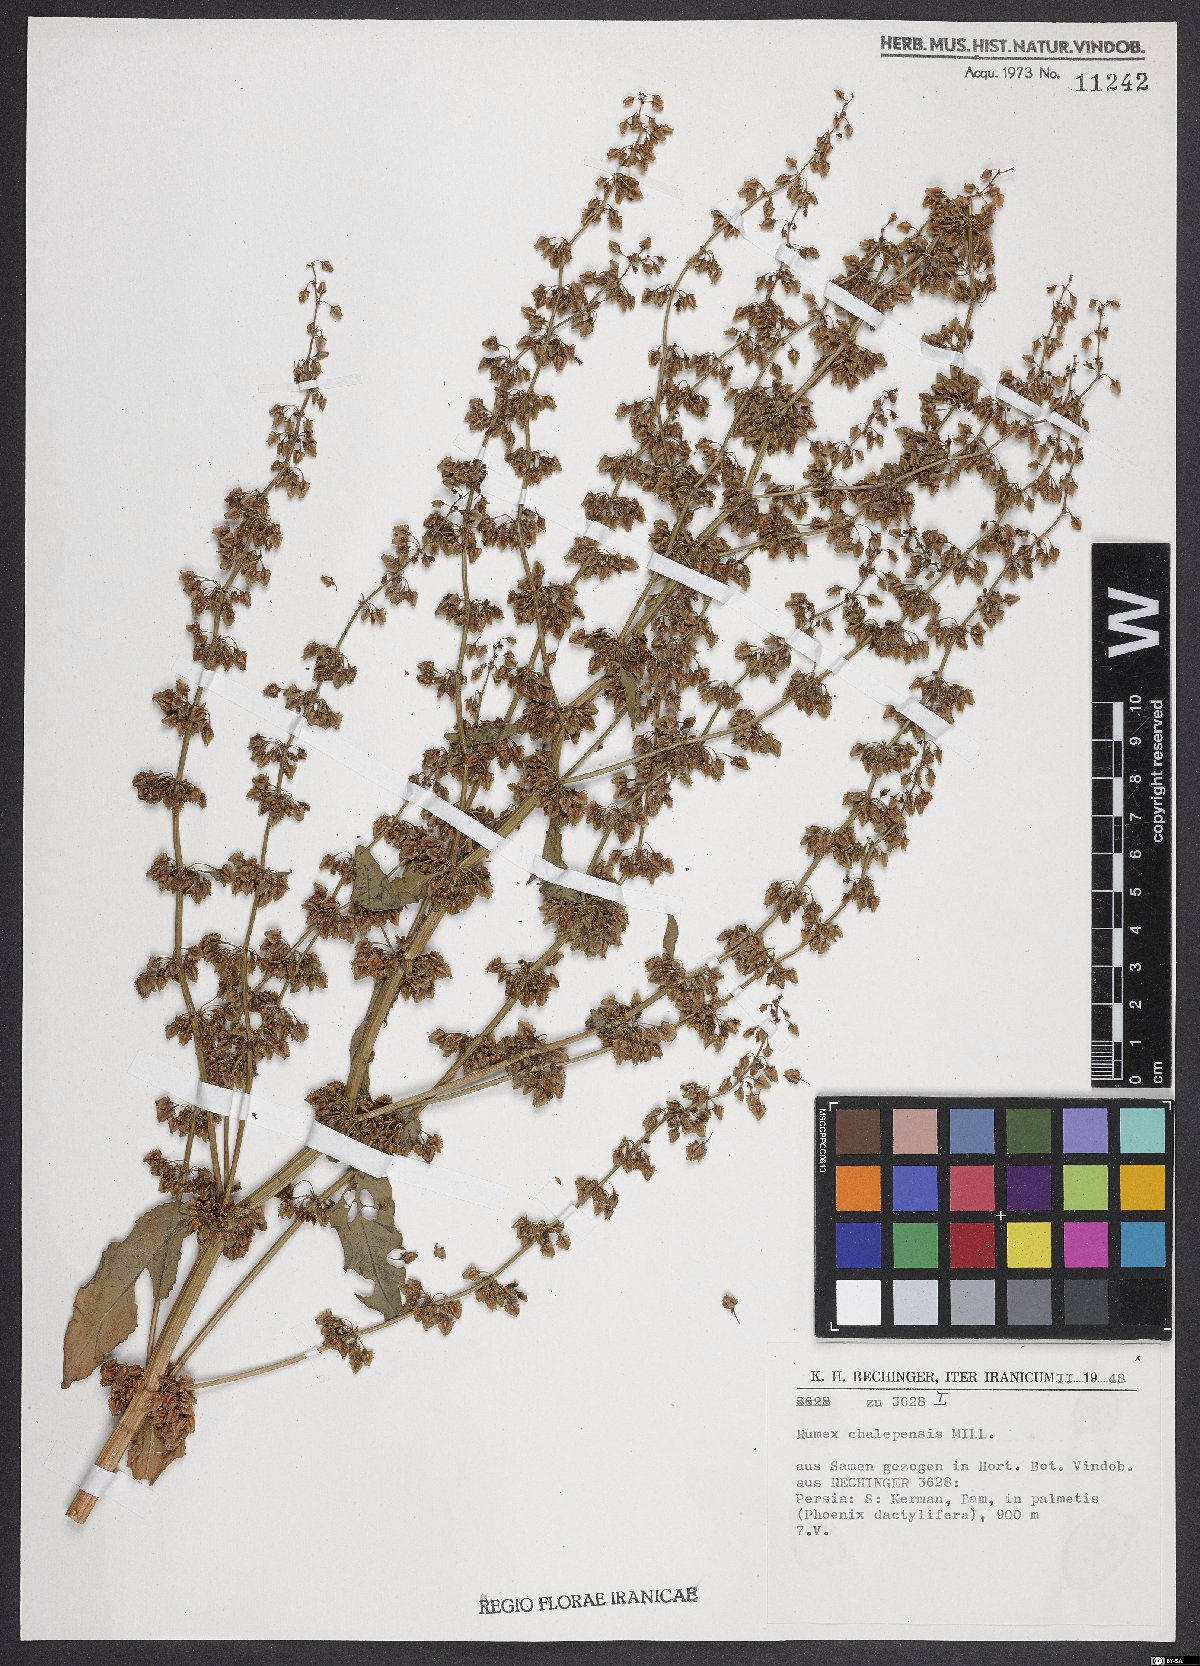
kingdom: Plantae
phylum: Tracheophyta
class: Magnoliopsida
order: Caryophyllales
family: Polygonaceae
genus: Rumex
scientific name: Rumex chalepensis
